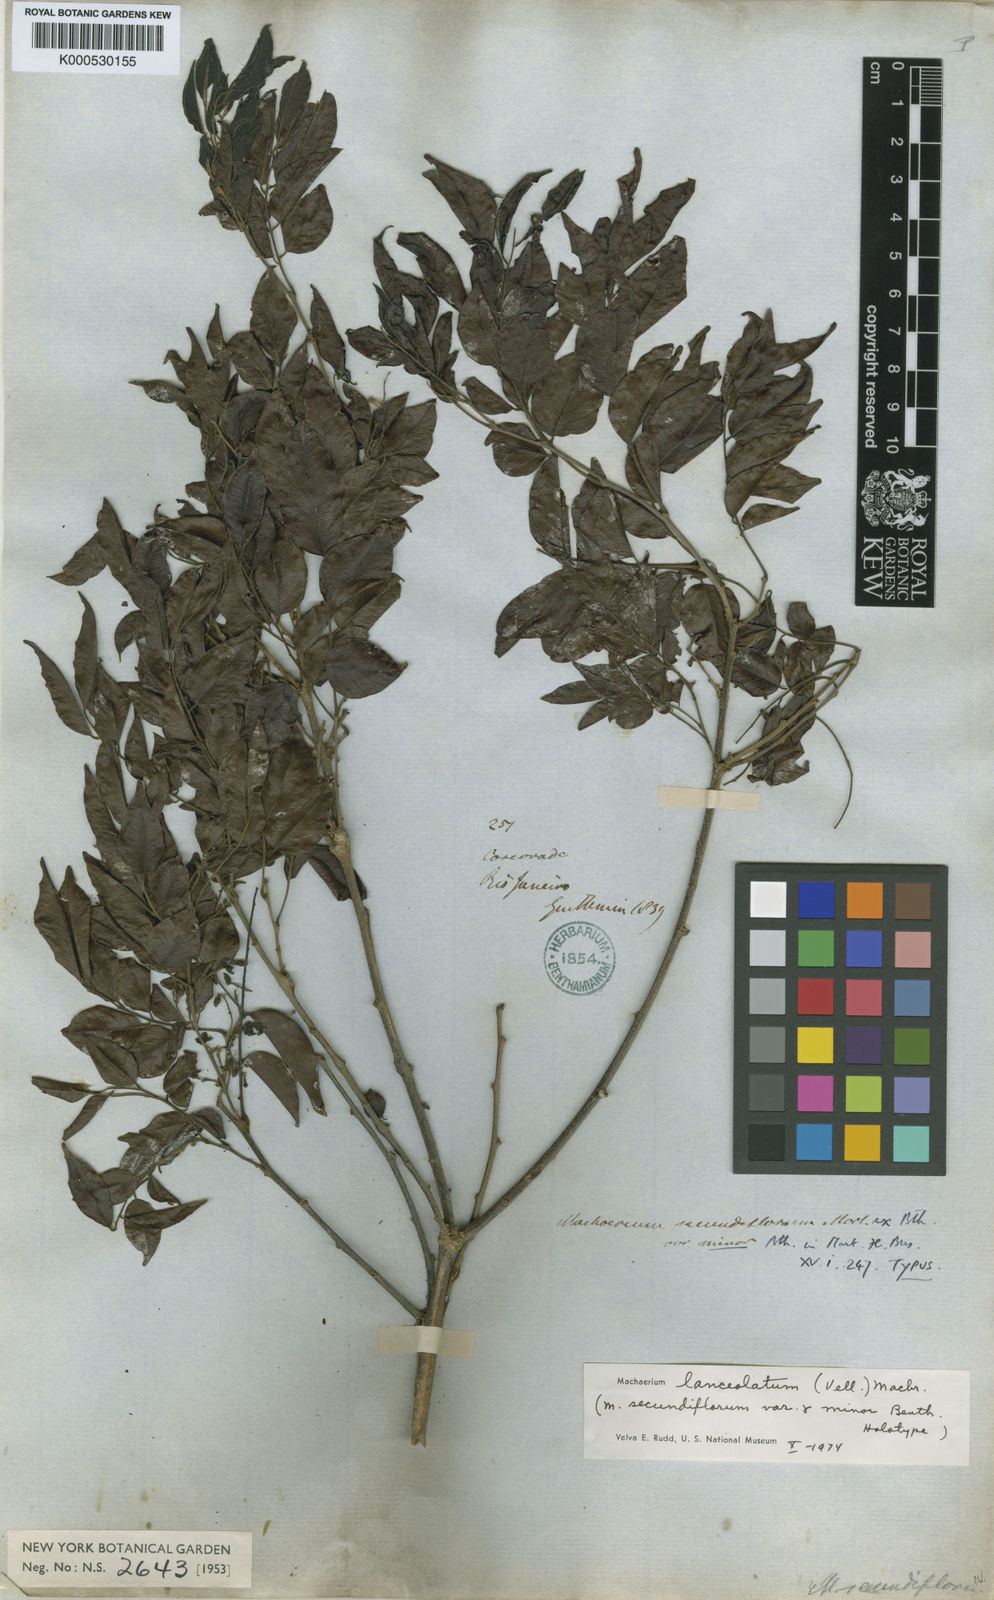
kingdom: Plantae
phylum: Tracheophyta
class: Magnoliopsida
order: Fabales
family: Fabaceae
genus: Machaerium
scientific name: Machaerium lanceolatum
